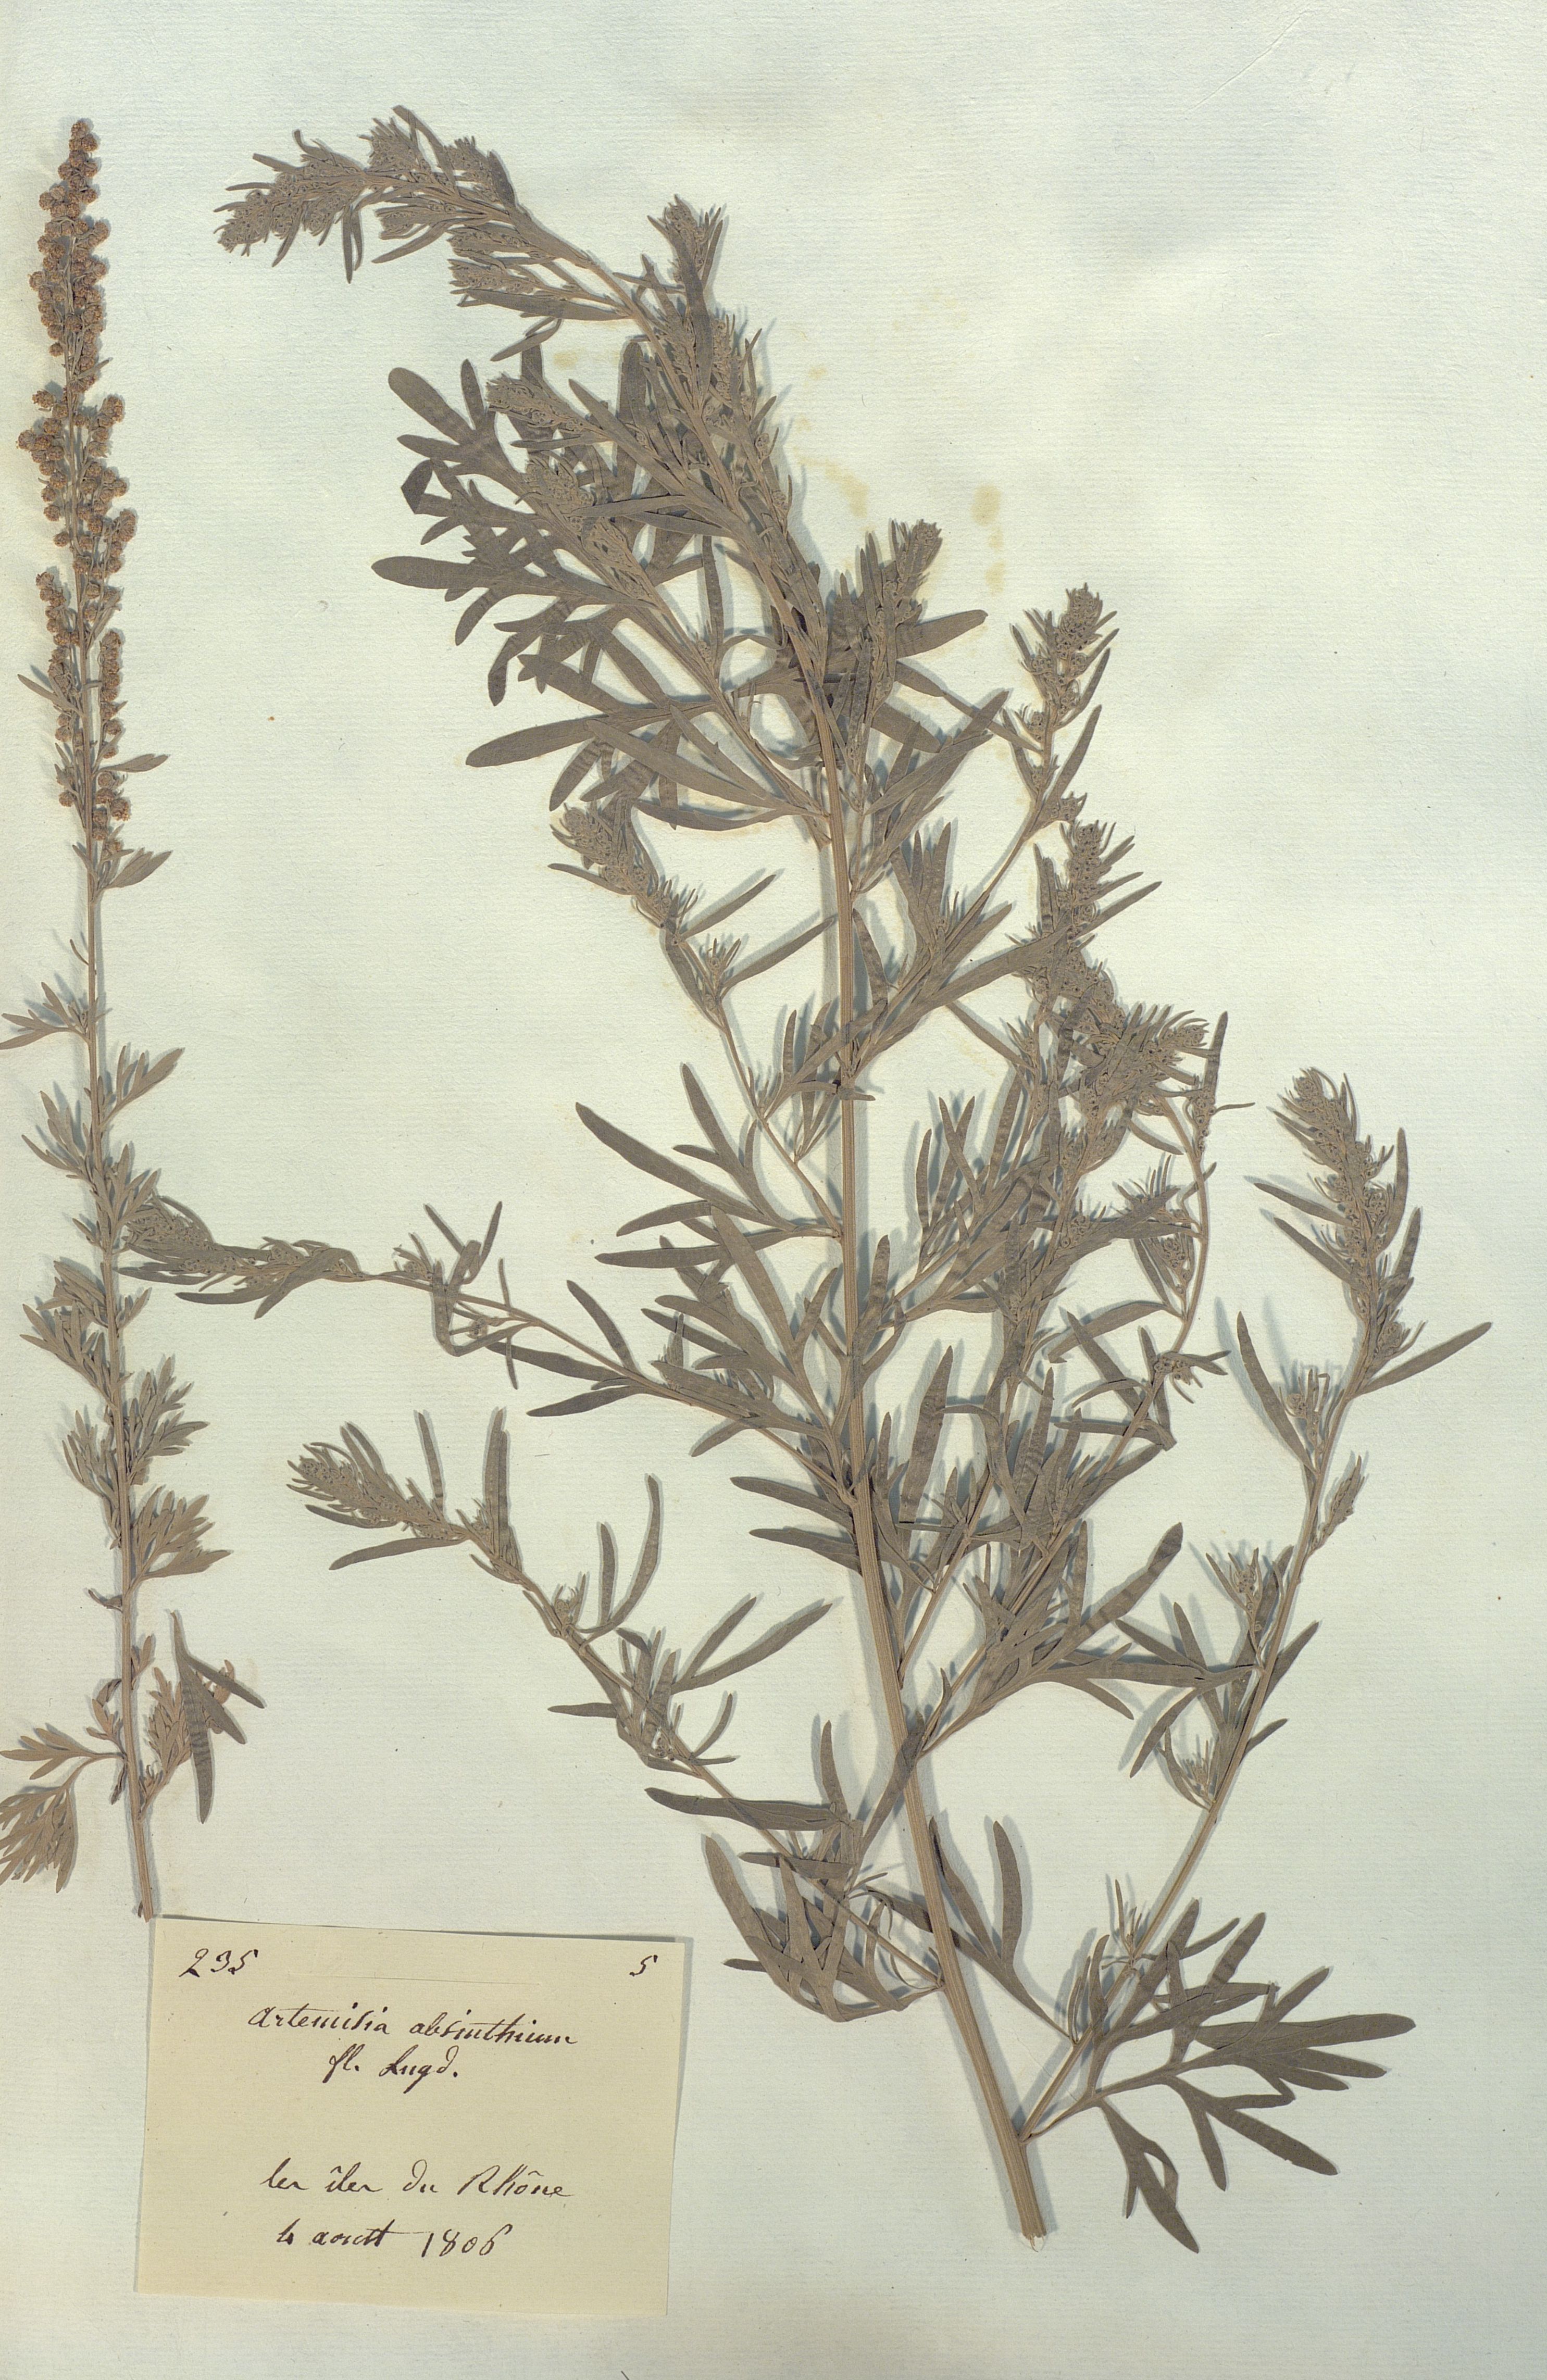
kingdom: Plantae
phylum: Tracheophyta
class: Magnoliopsida
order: Asterales
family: Asteraceae
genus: Artemisia
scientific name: Artemisia absinthium
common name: Wormwood
